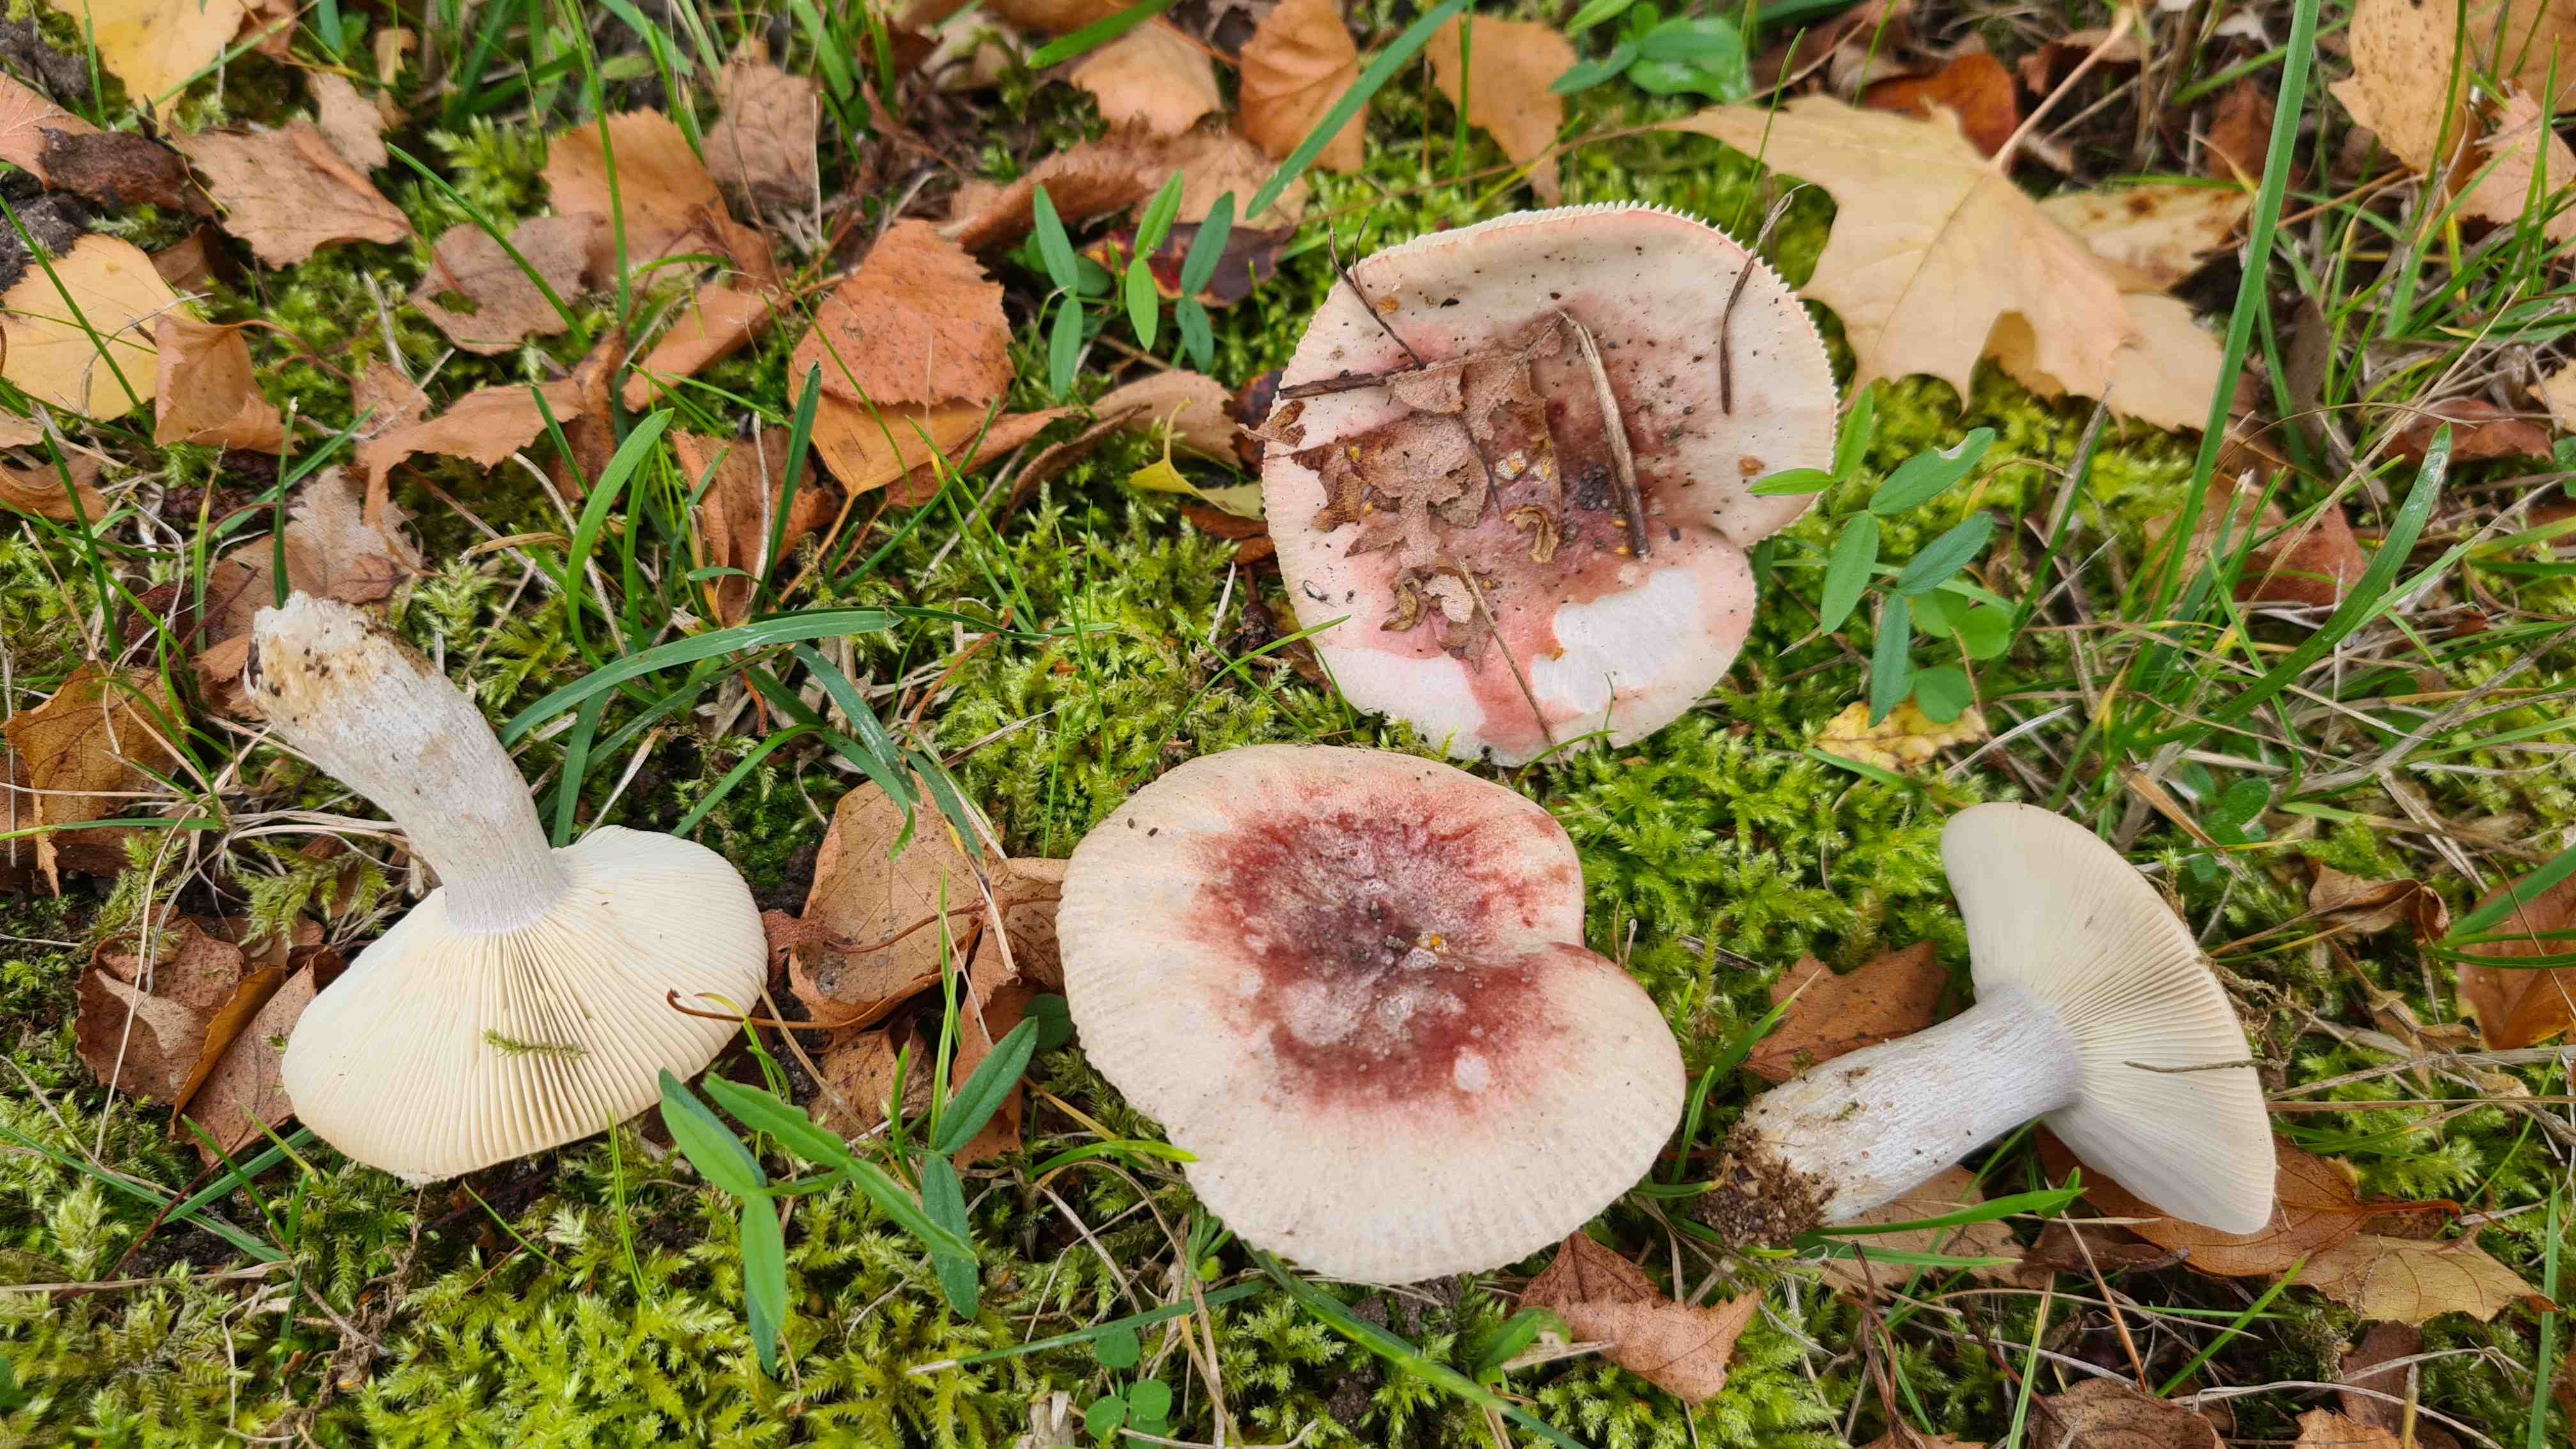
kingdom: Fungi
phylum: Basidiomycota
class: Agaricomycetes
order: Russulales
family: Russulaceae
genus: Russula
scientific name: Russula depallens
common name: falmende skørhat
